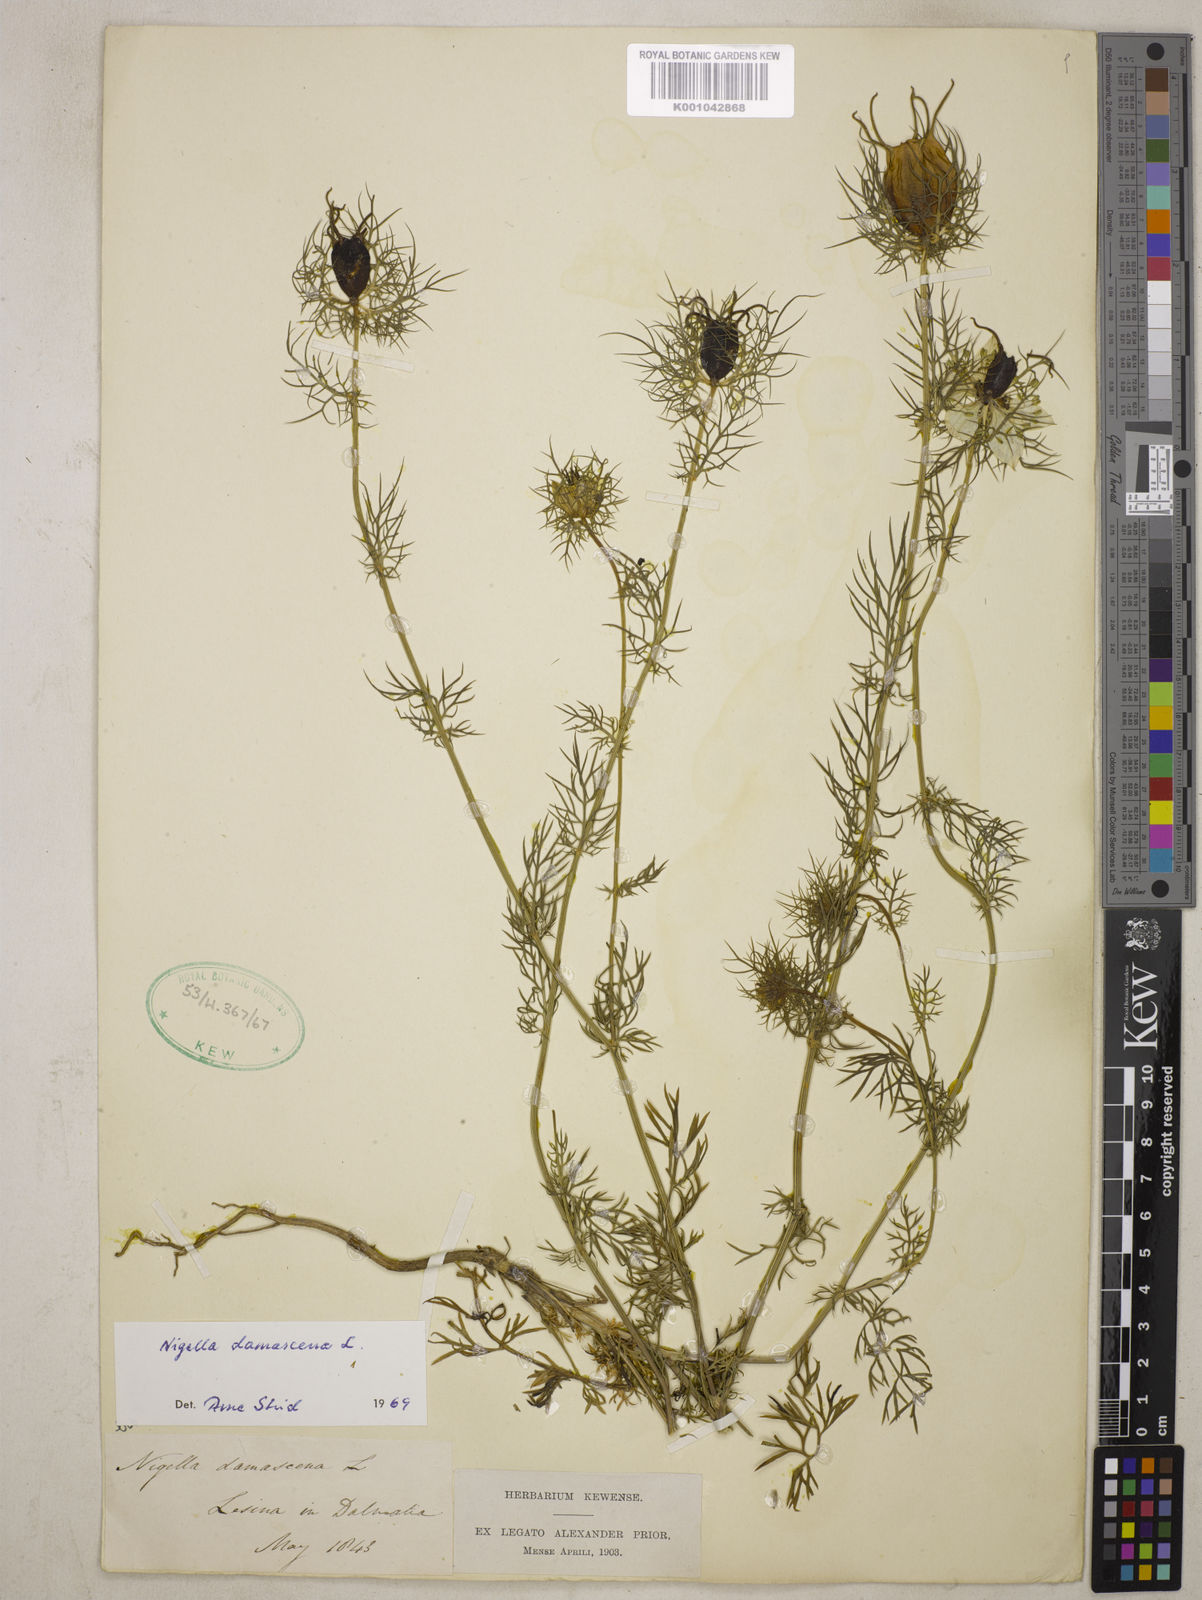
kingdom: Plantae
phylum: Tracheophyta
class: Magnoliopsida
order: Ranunculales
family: Ranunculaceae
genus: Nigella
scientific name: Nigella damascena
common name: Love-in-a-mist
